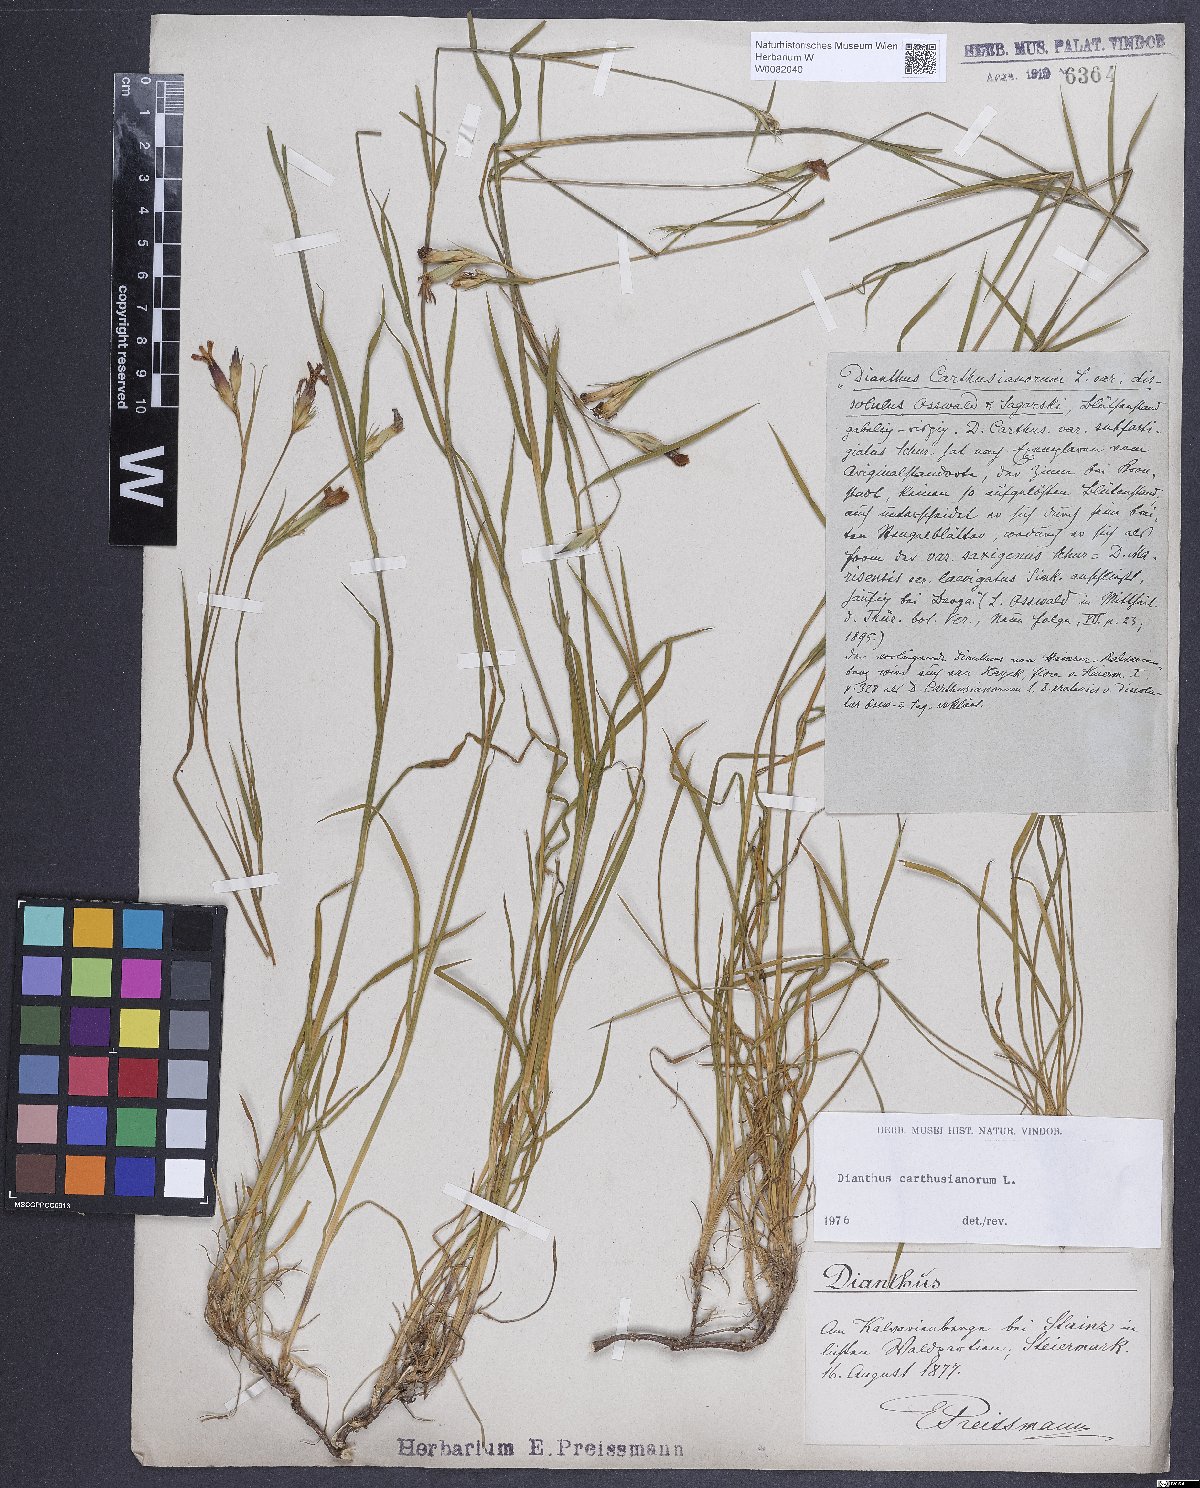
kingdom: Plantae
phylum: Tracheophyta
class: Magnoliopsida
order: Caryophyllales
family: Caryophyllaceae
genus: Dianthus
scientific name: Dianthus carthusianorum
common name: Carthusian pink
